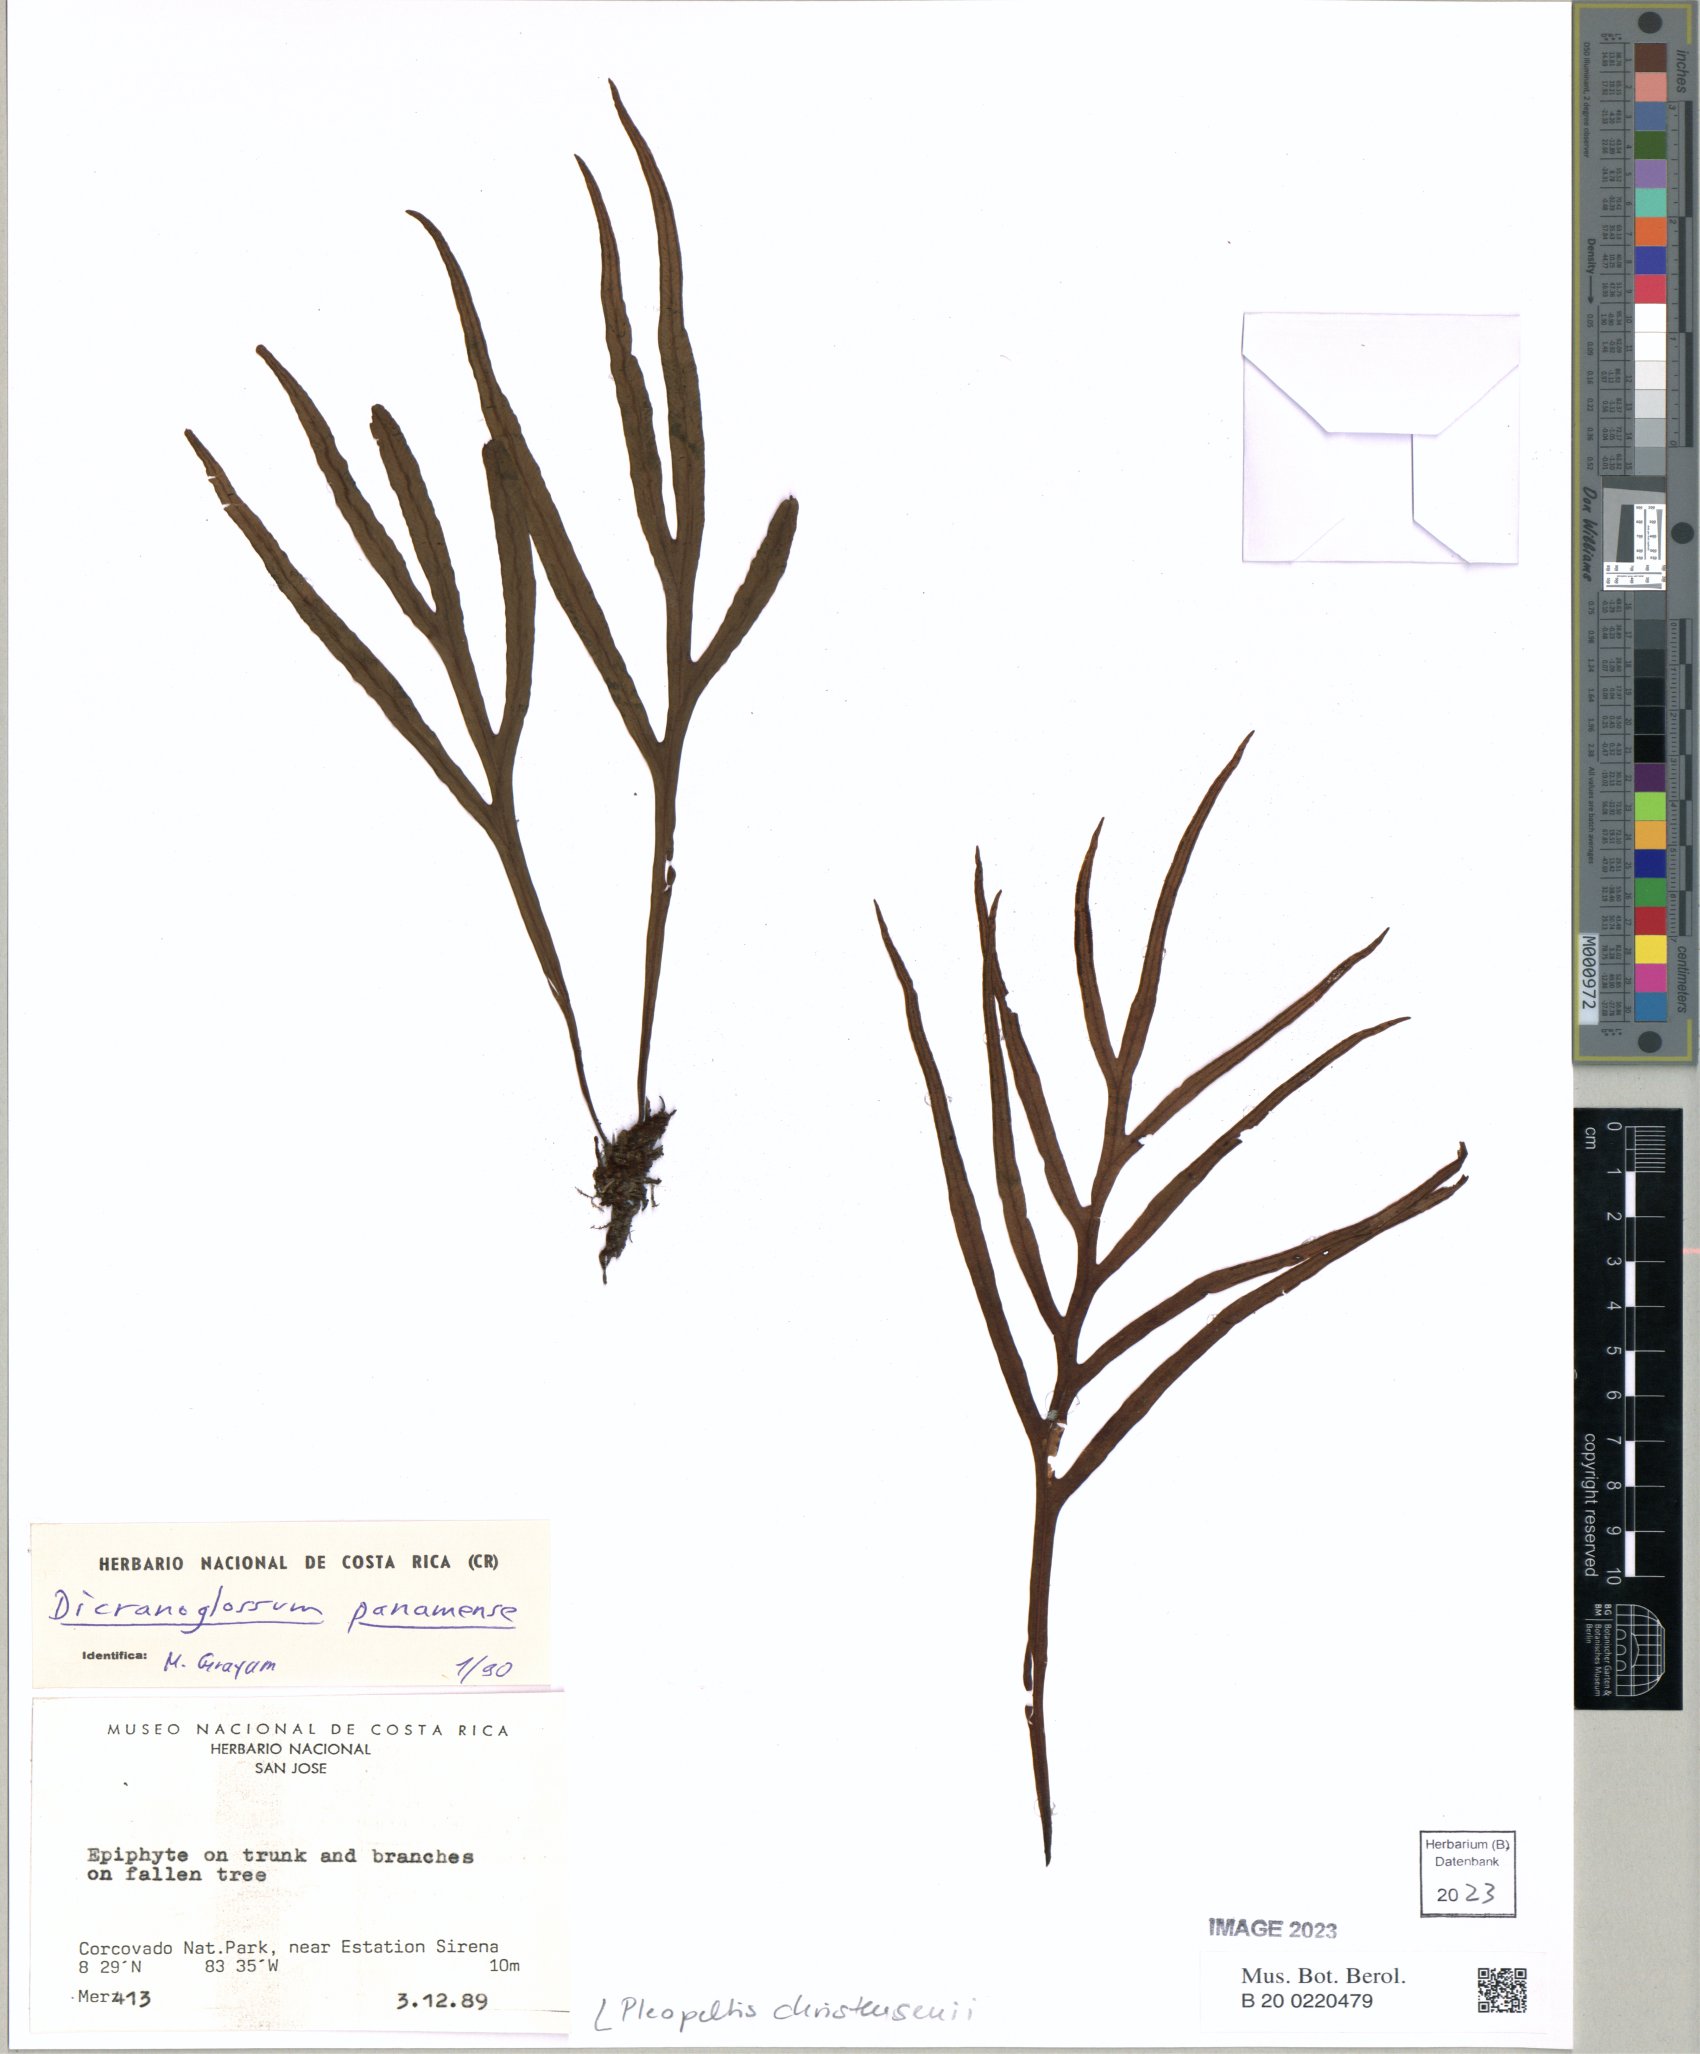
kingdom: Plantae
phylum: Tracheophyta
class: Polypodiopsida
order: Polypodiales
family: Polypodiaceae
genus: Pleopeltis
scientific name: Pleopeltis christensenii
